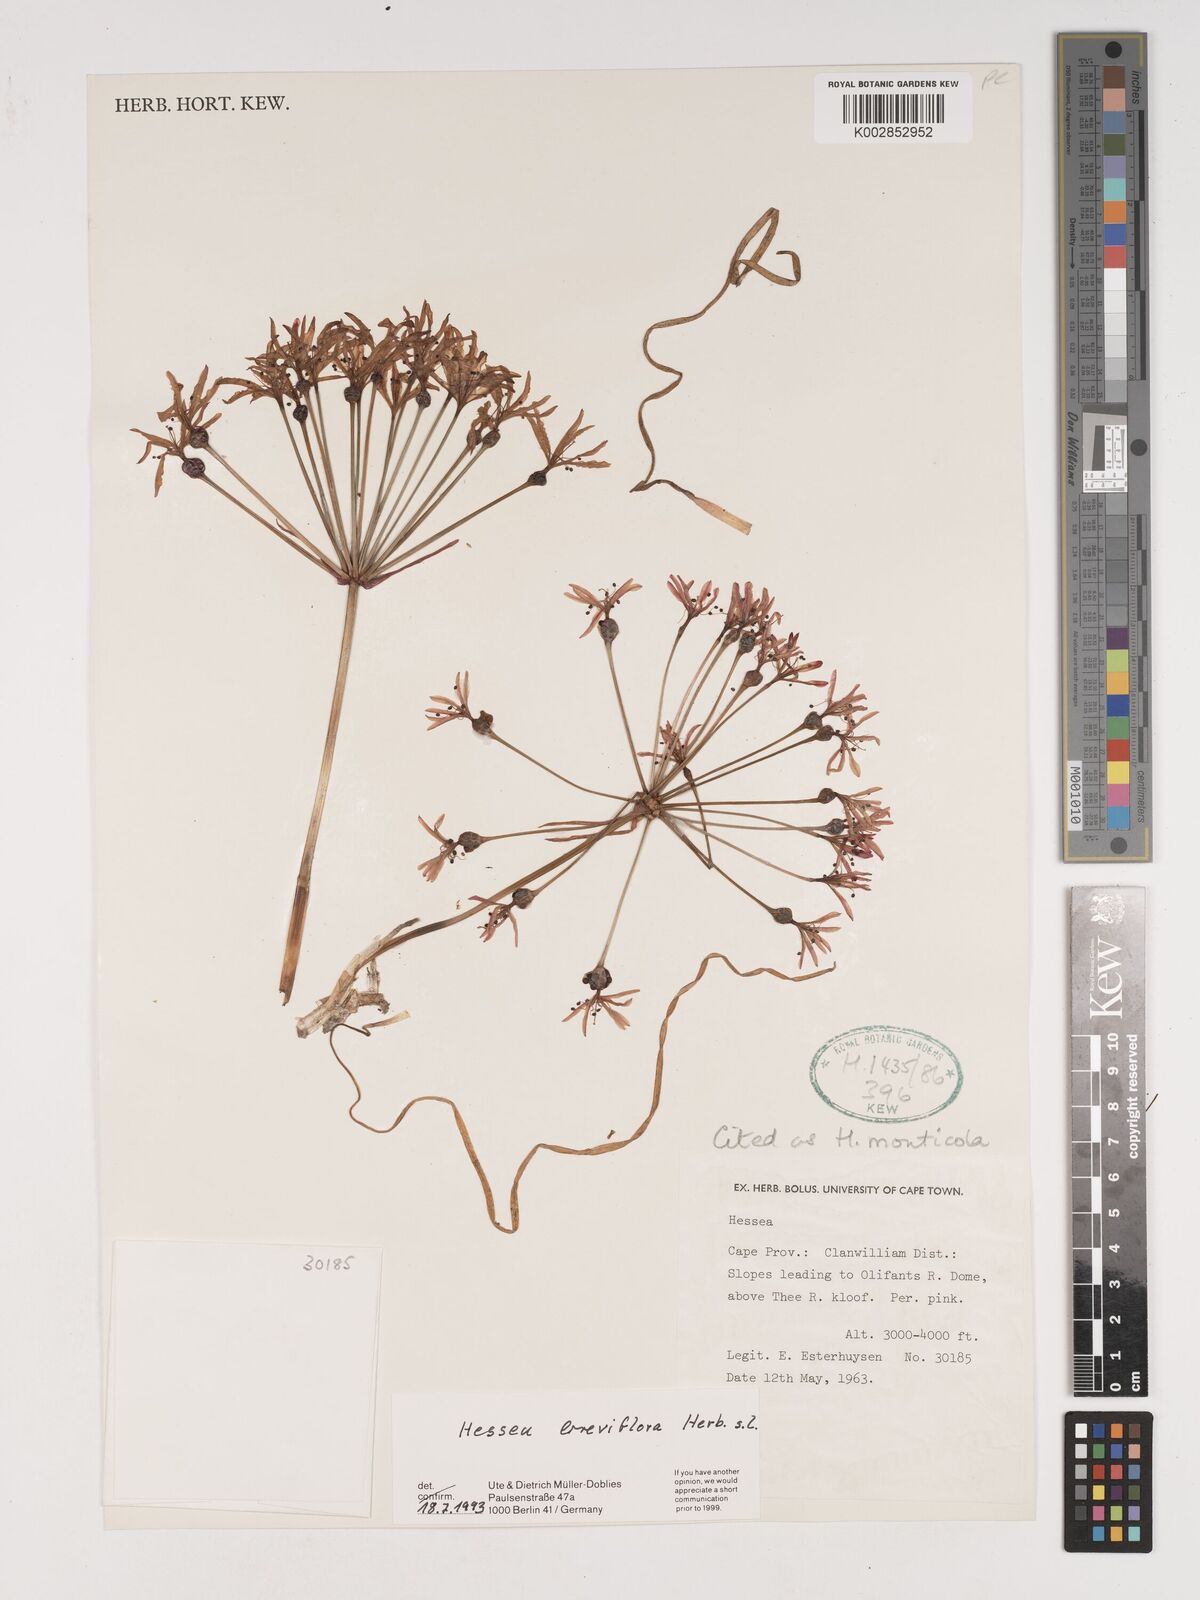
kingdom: Plantae
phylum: Tracheophyta
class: Liliopsida
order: Asparagales
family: Amaryllidaceae
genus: Hessea
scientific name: Hessea monticola
